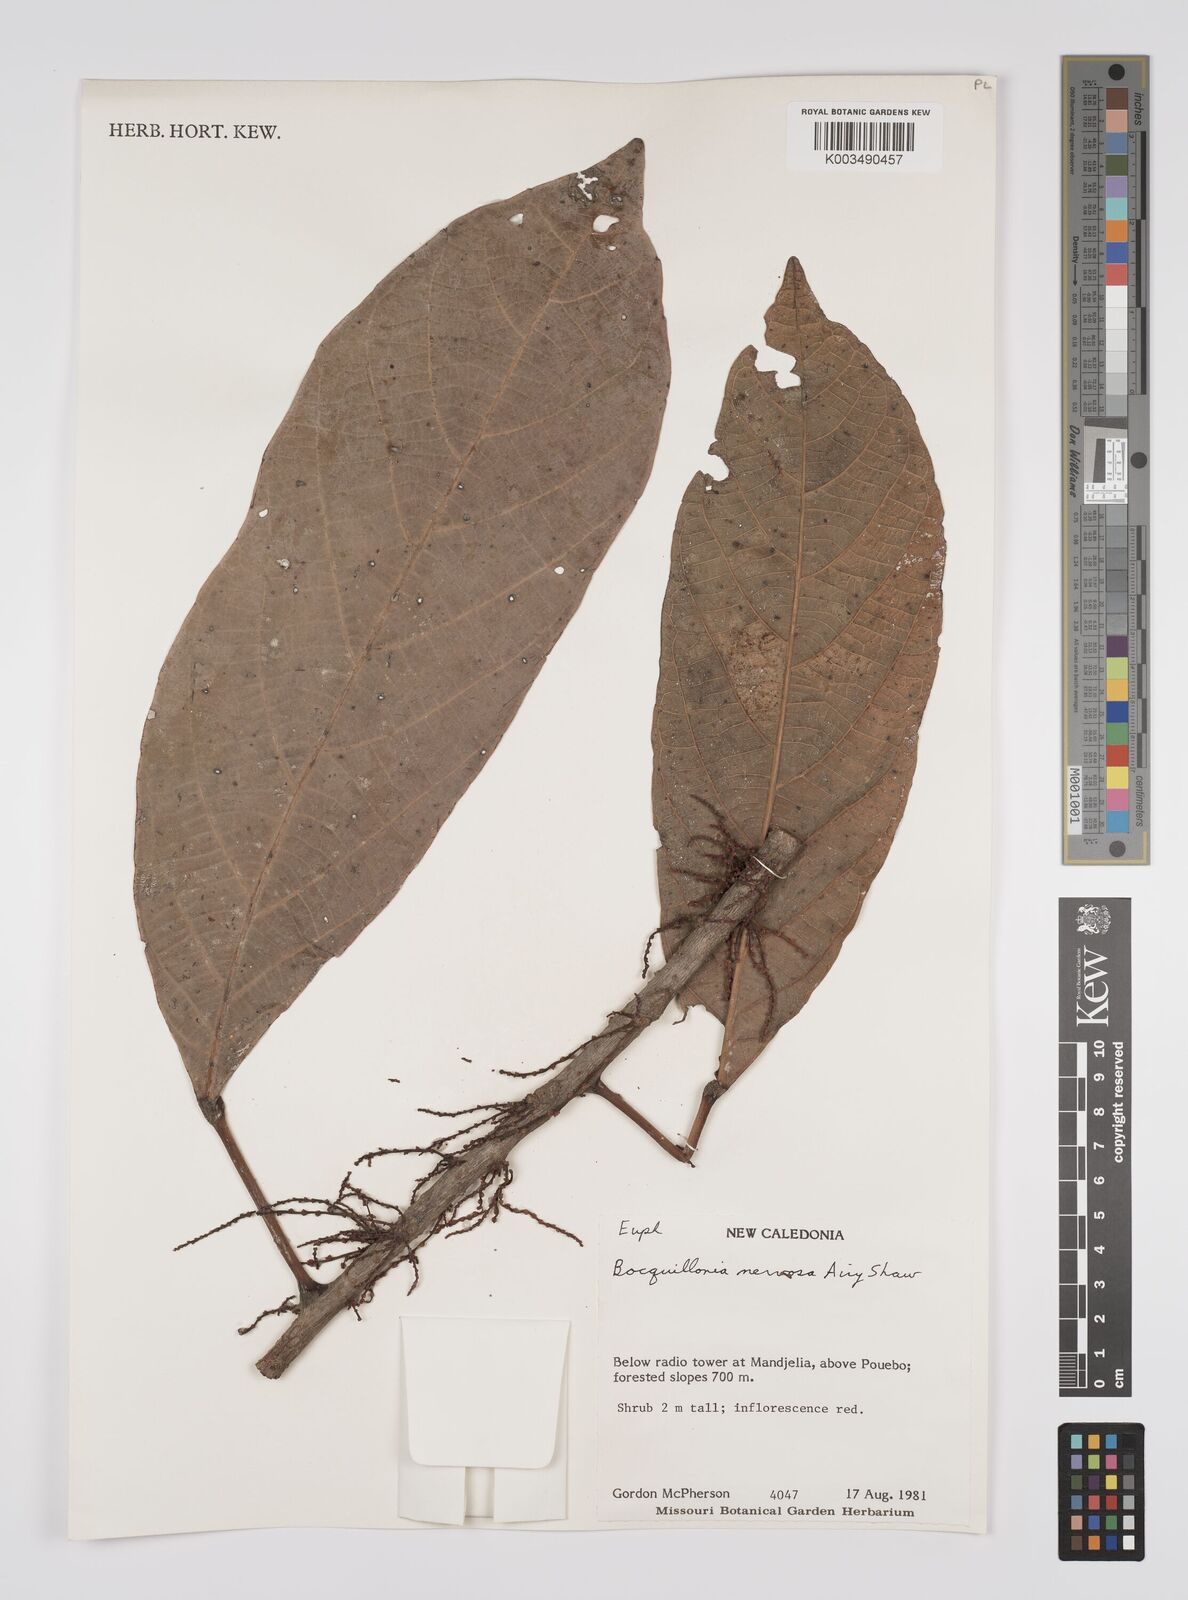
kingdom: Plantae
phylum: Tracheophyta
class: Magnoliopsida
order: Malpighiales
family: Euphorbiaceae
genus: Bocquillonia
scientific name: Bocquillonia nervosa
